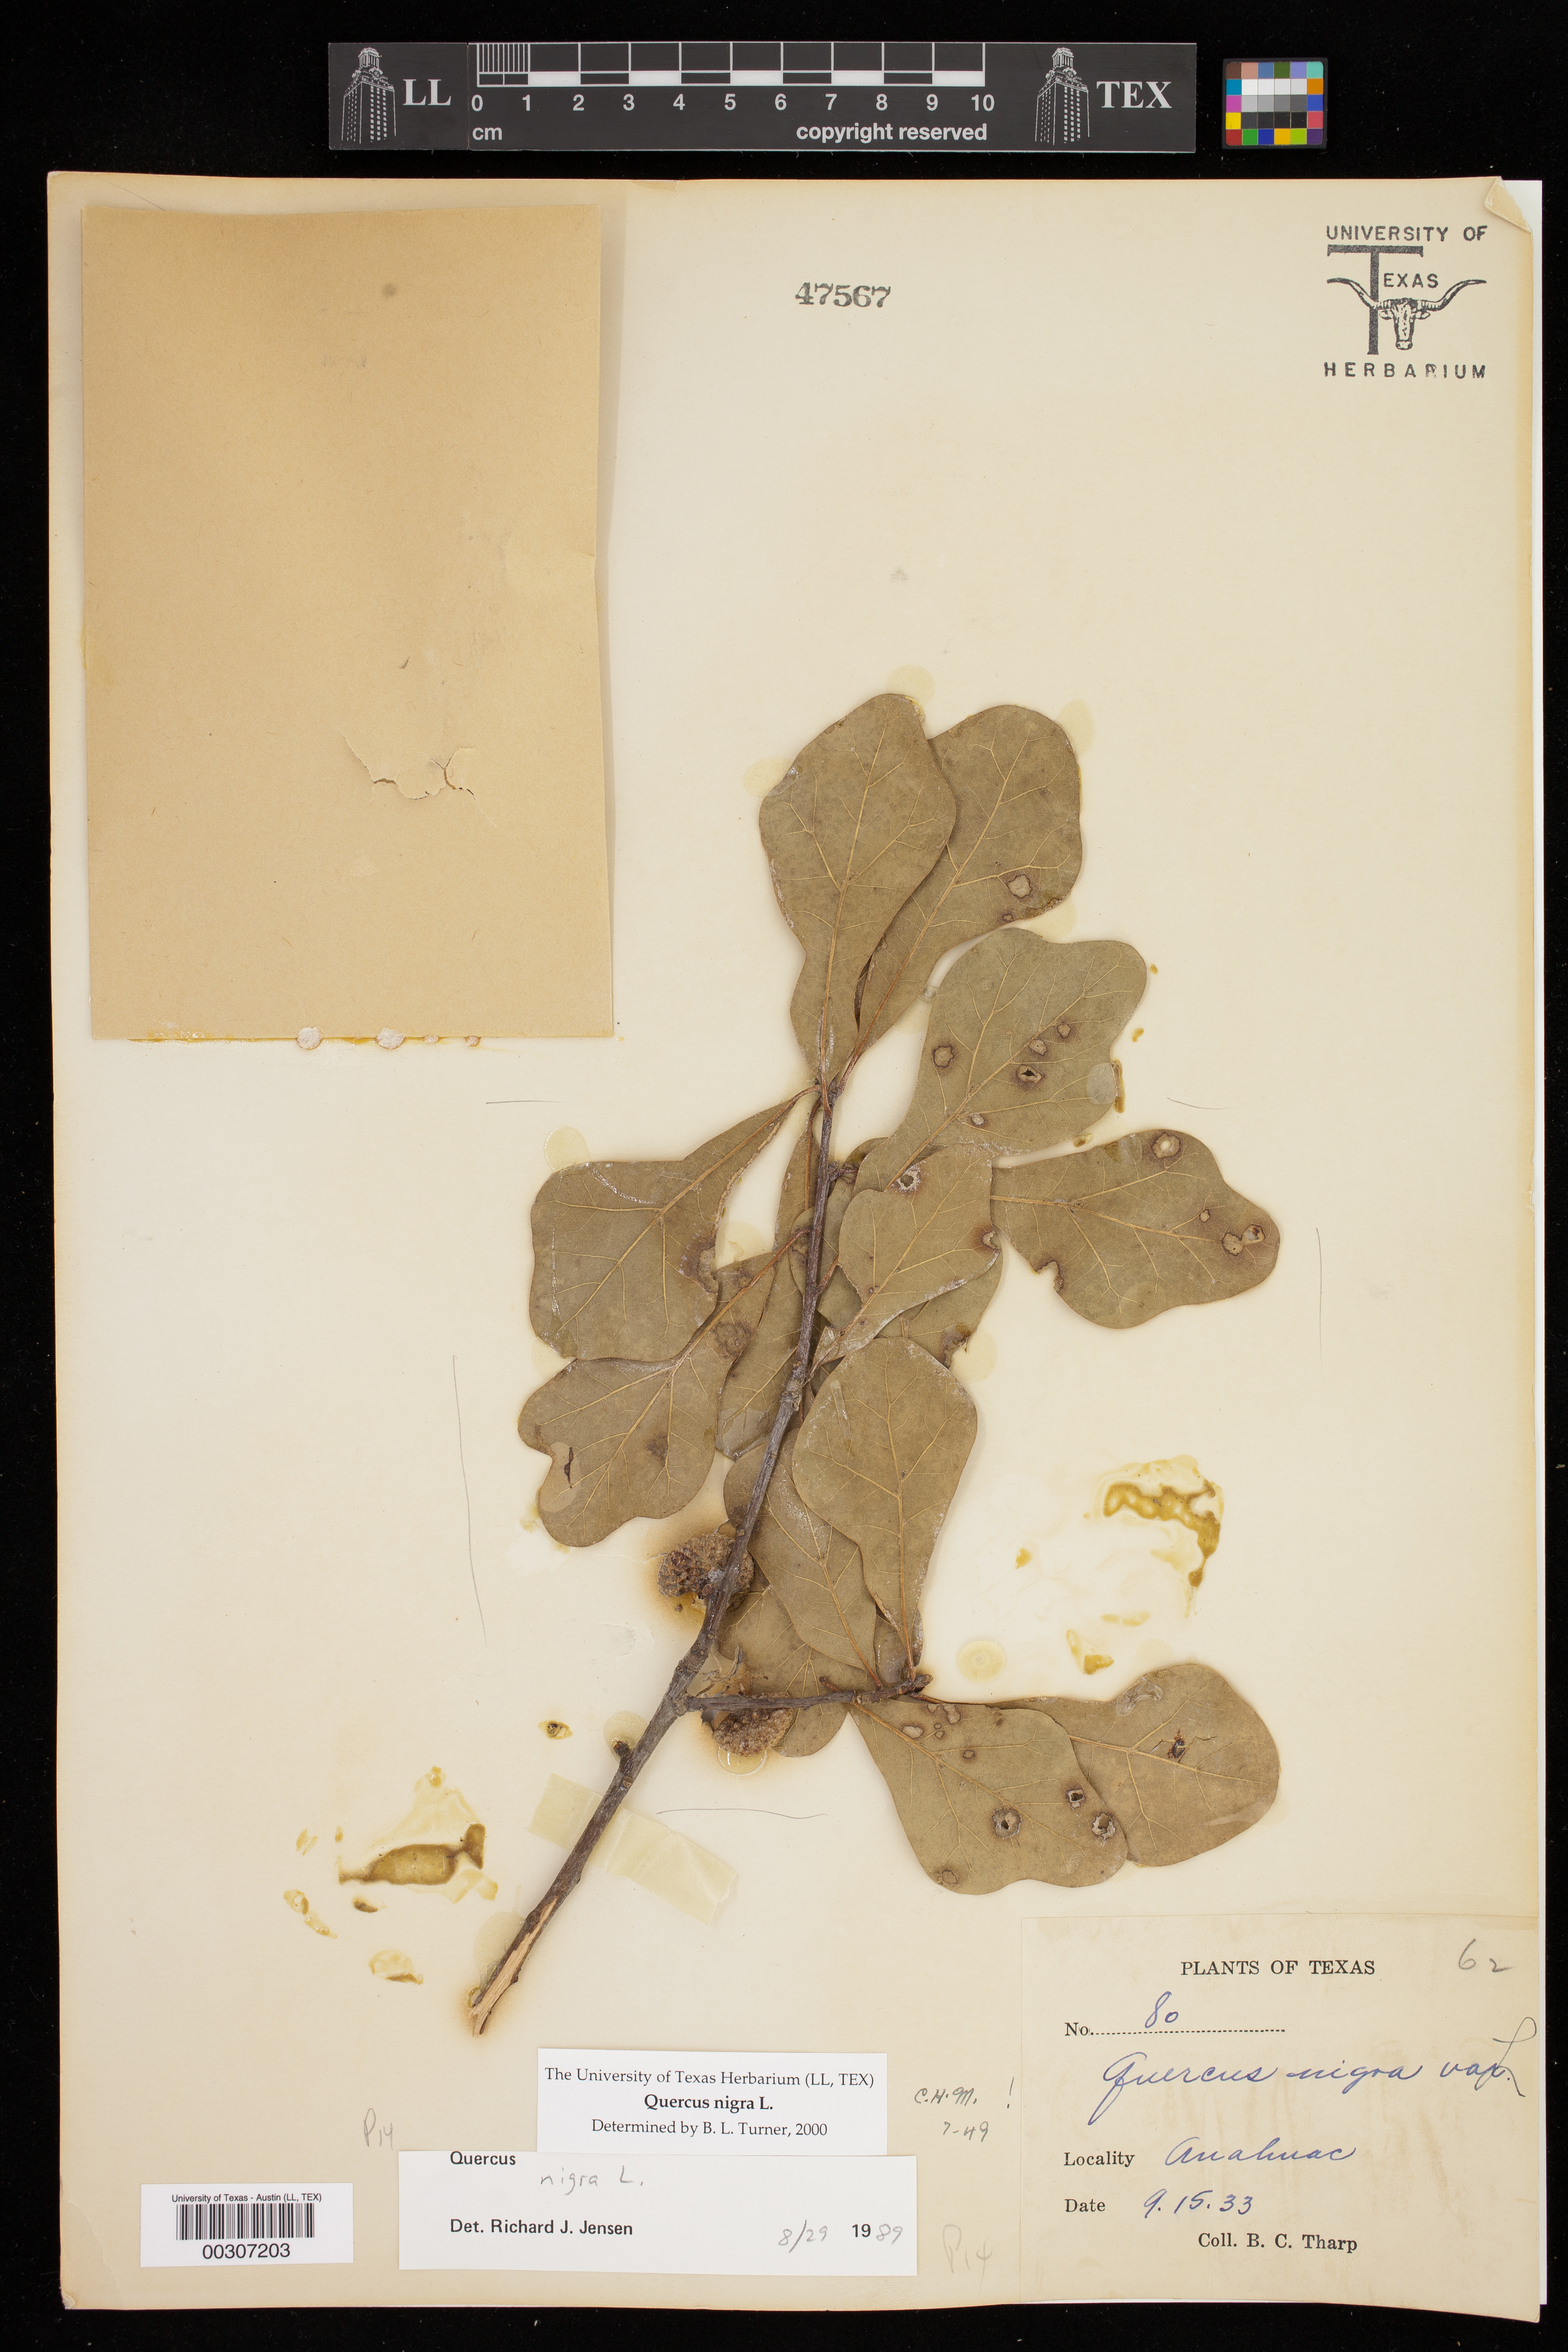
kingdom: Plantae
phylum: Tracheophyta
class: Magnoliopsida
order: Fagales
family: Fagaceae
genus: Quercus
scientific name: Quercus nigra
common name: Water oak
